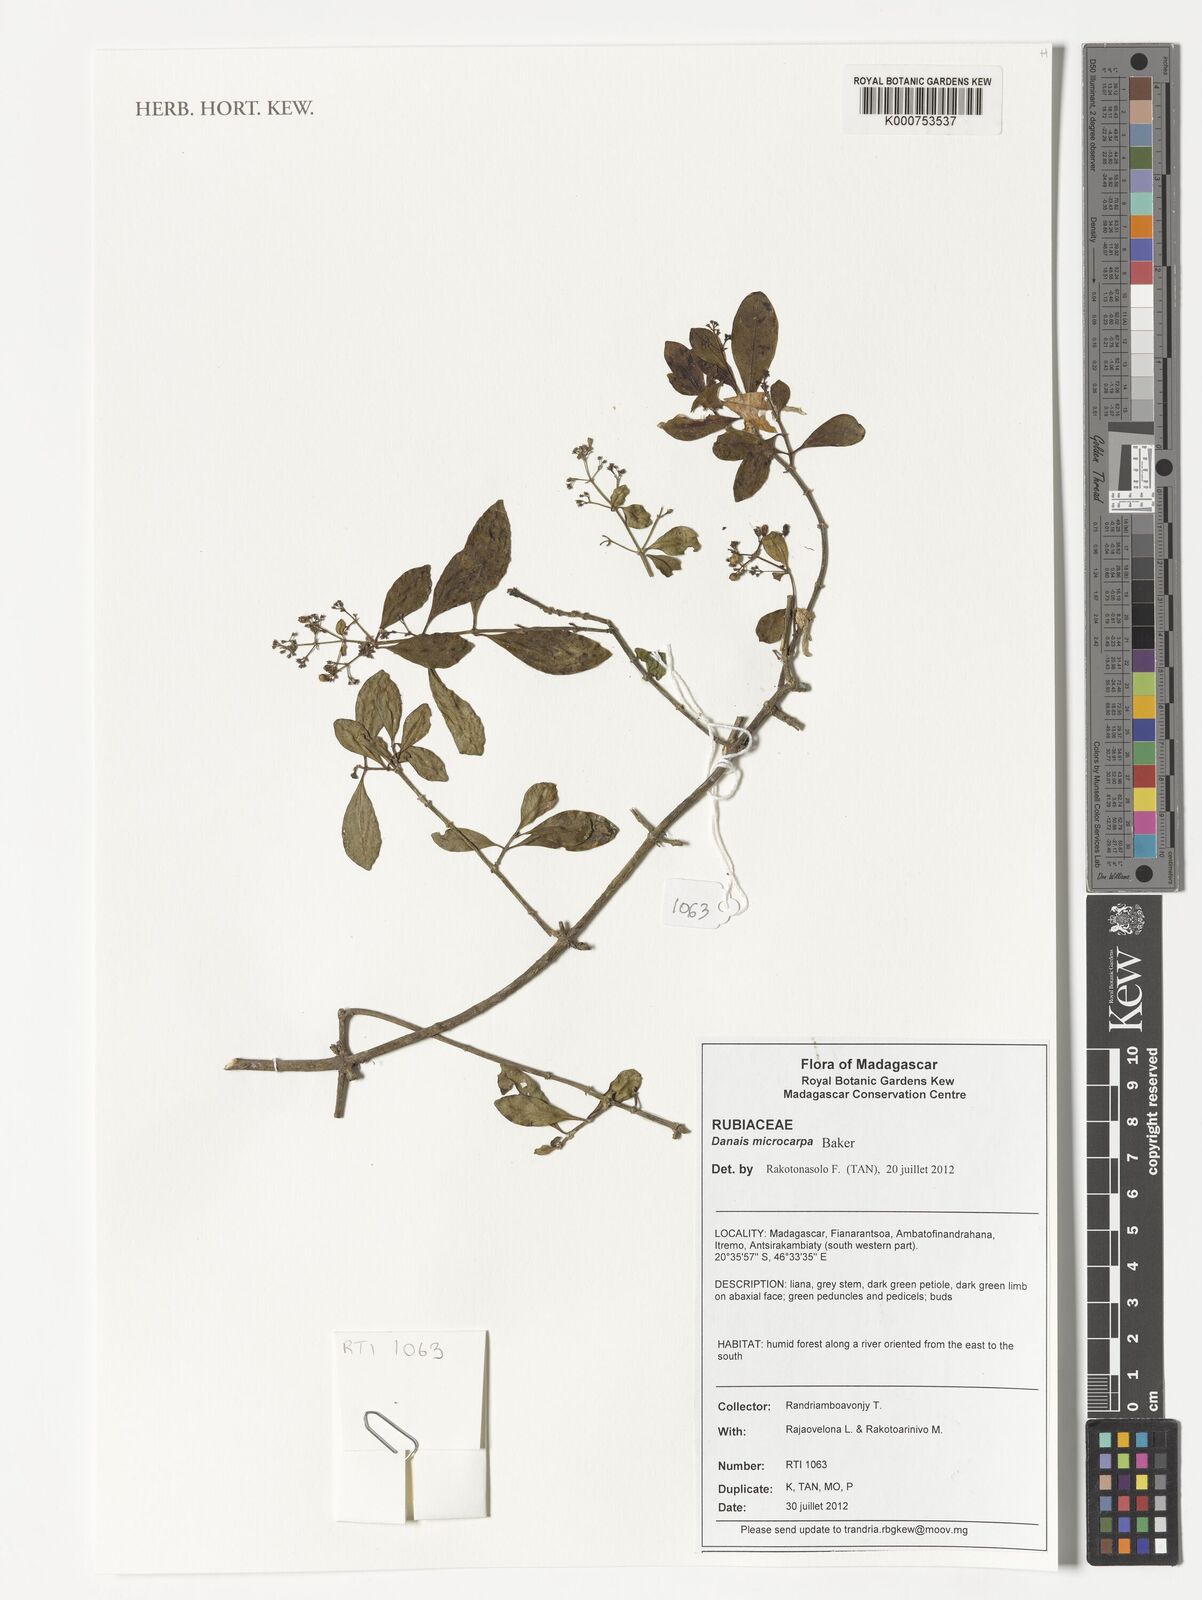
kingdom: Plantae
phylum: Tracheophyta
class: Magnoliopsida
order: Gentianales
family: Rubiaceae
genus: Danais
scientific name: Danais microcarpa
